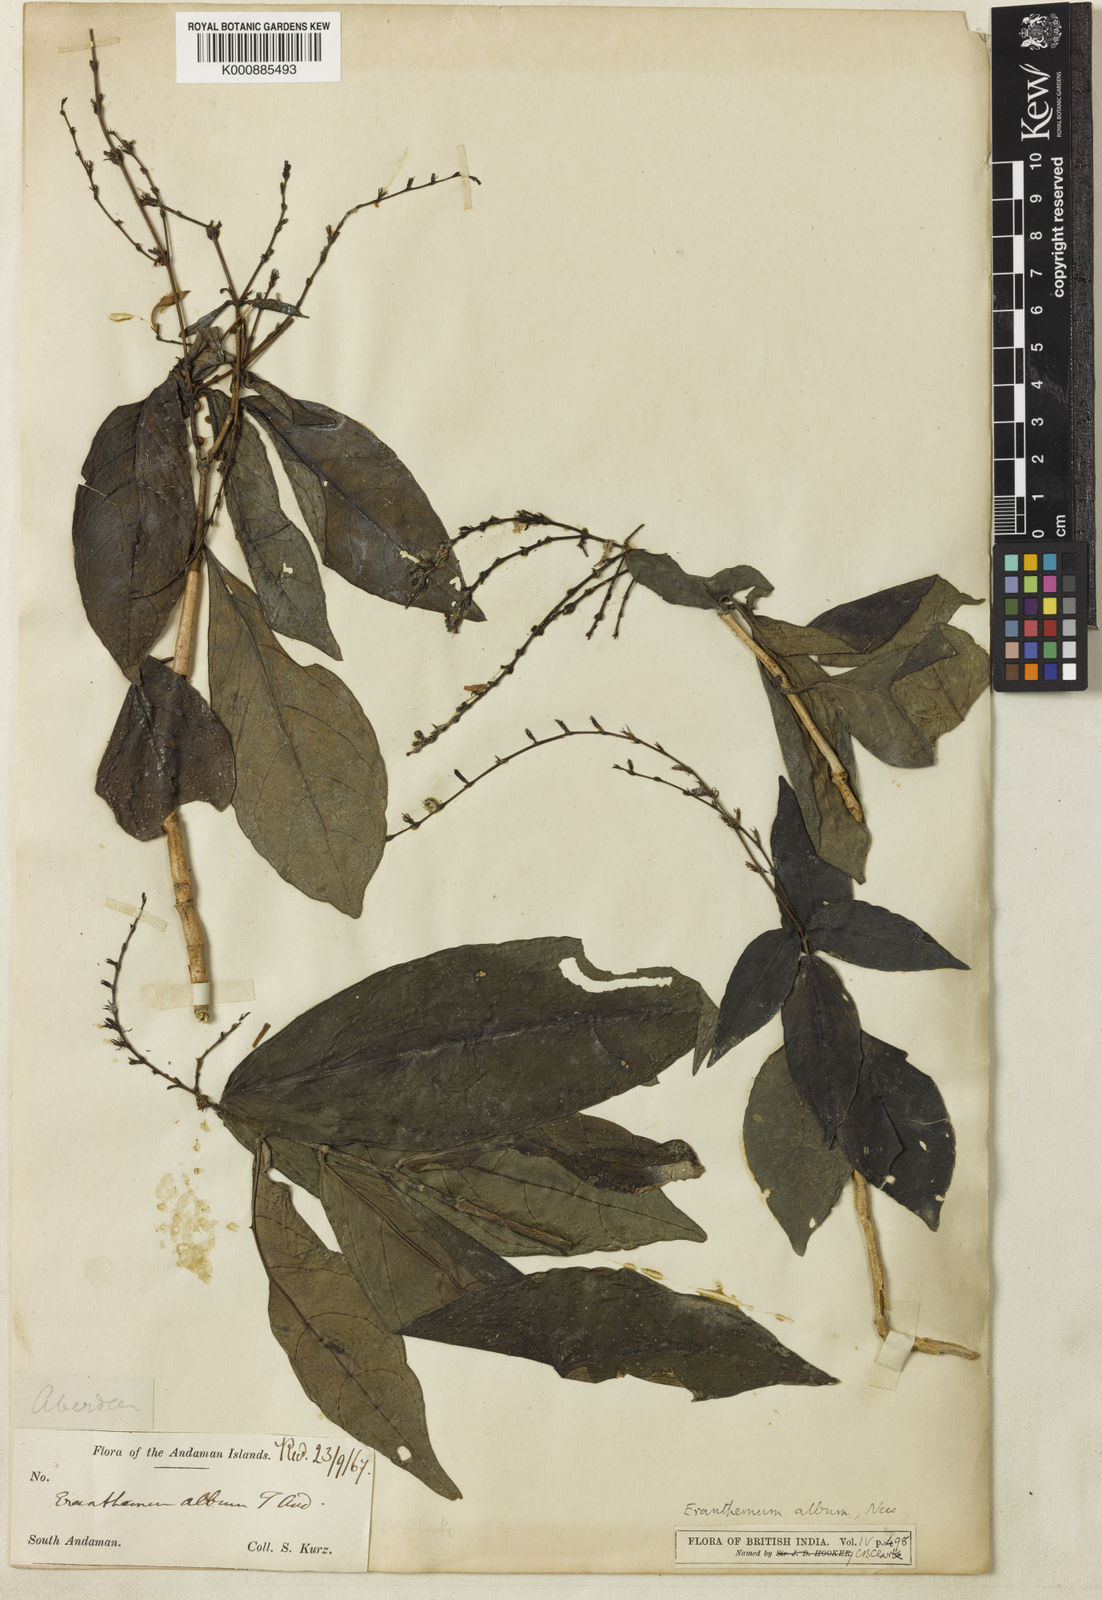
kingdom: Plantae
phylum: Tracheophyta
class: Magnoliopsida
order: Lamiales
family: Acanthaceae
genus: Pseuderanthemum
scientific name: Pseuderanthemum album
